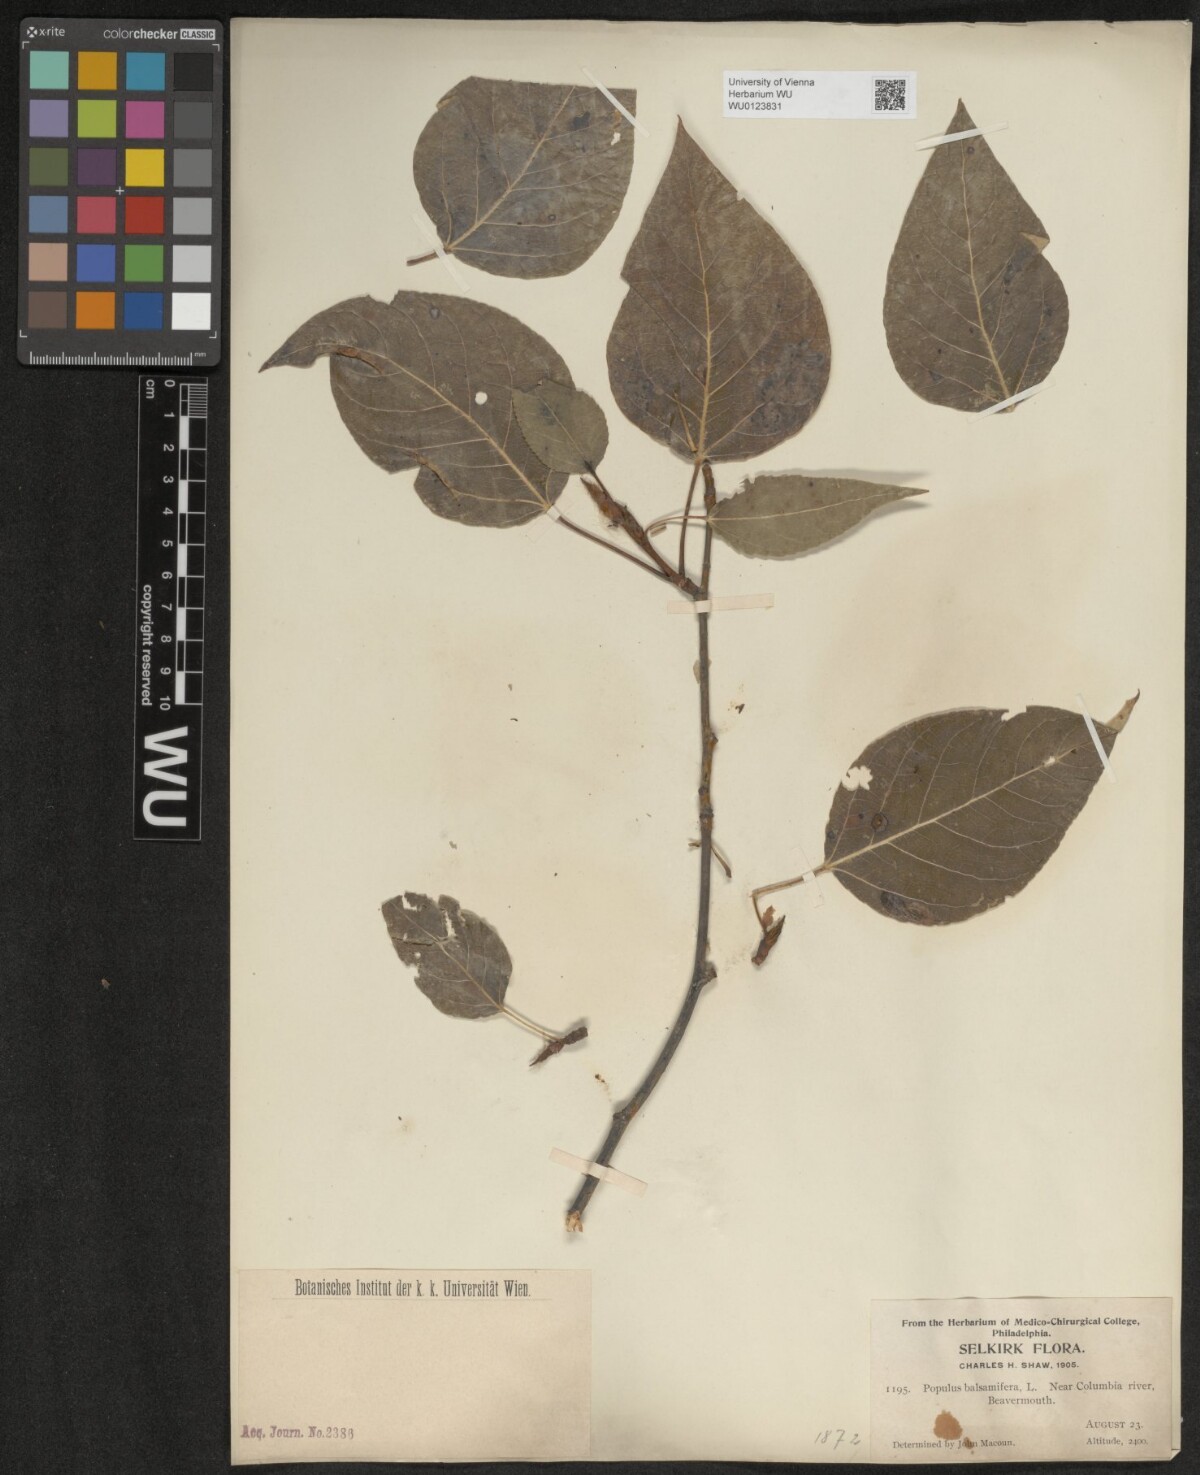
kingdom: Plantae
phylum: Tracheophyta
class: Magnoliopsida
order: Malpighiales
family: Salicaceae
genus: Populus
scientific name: Populus balsamifera
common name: Balsam poplar
